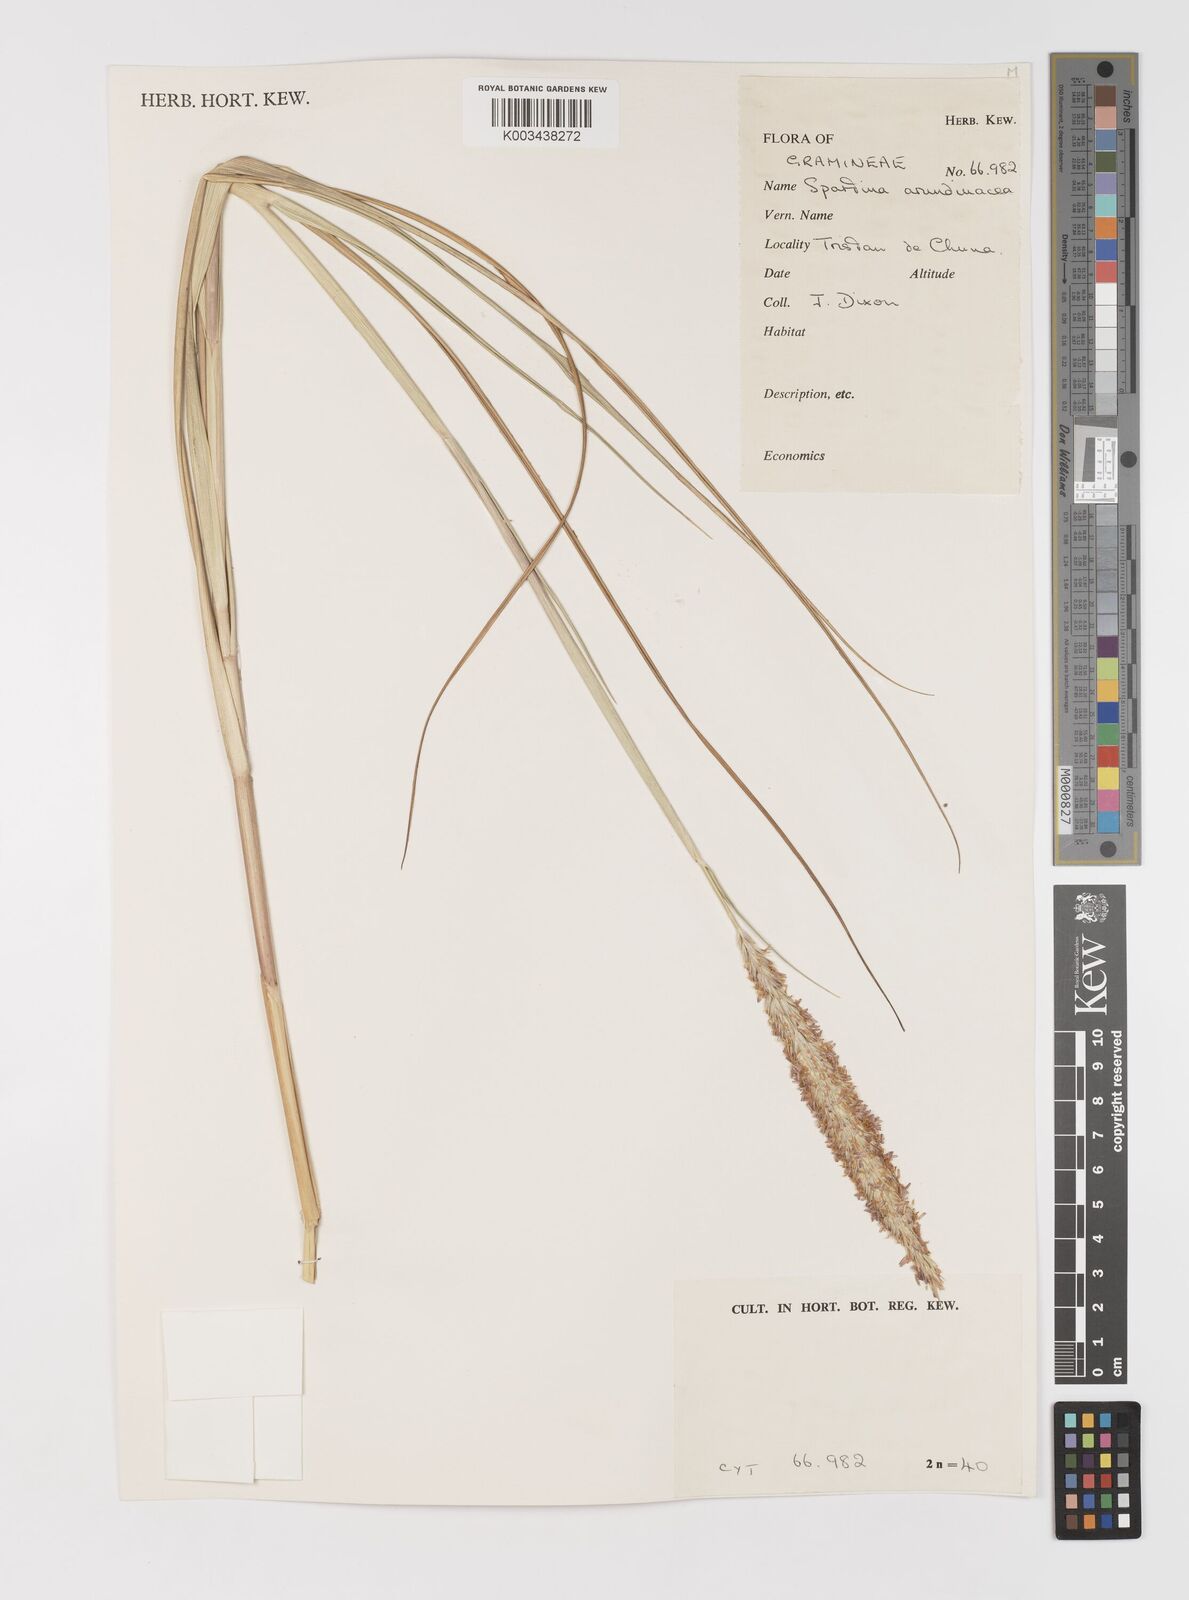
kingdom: Plantae
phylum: Tracheophyta
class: Liliopsida
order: Poales
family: Poaceae
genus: Sporobolus
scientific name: Sporobolus mobberleyanus
